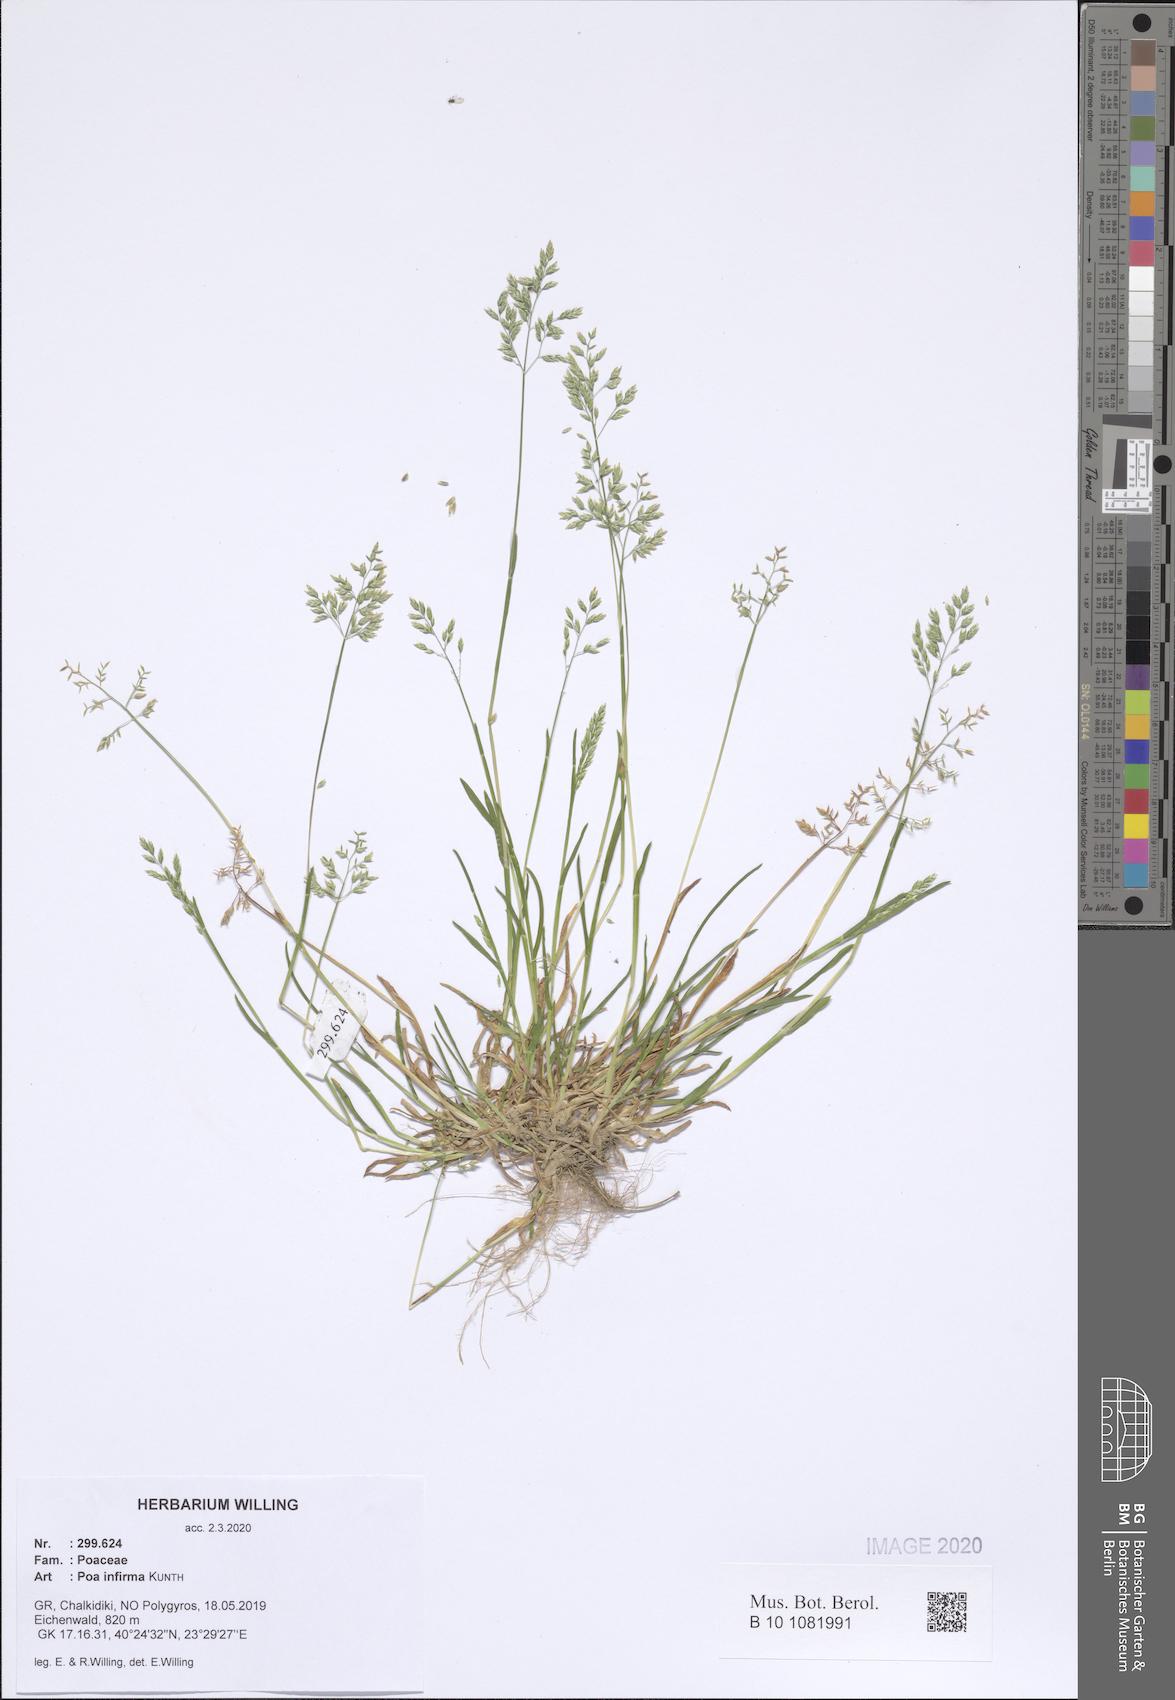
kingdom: Plantae
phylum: Tracheophyta
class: Liliopsida
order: Poales
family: Poaceae
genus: Poa
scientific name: Poa infirma
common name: Weak bluegrass
